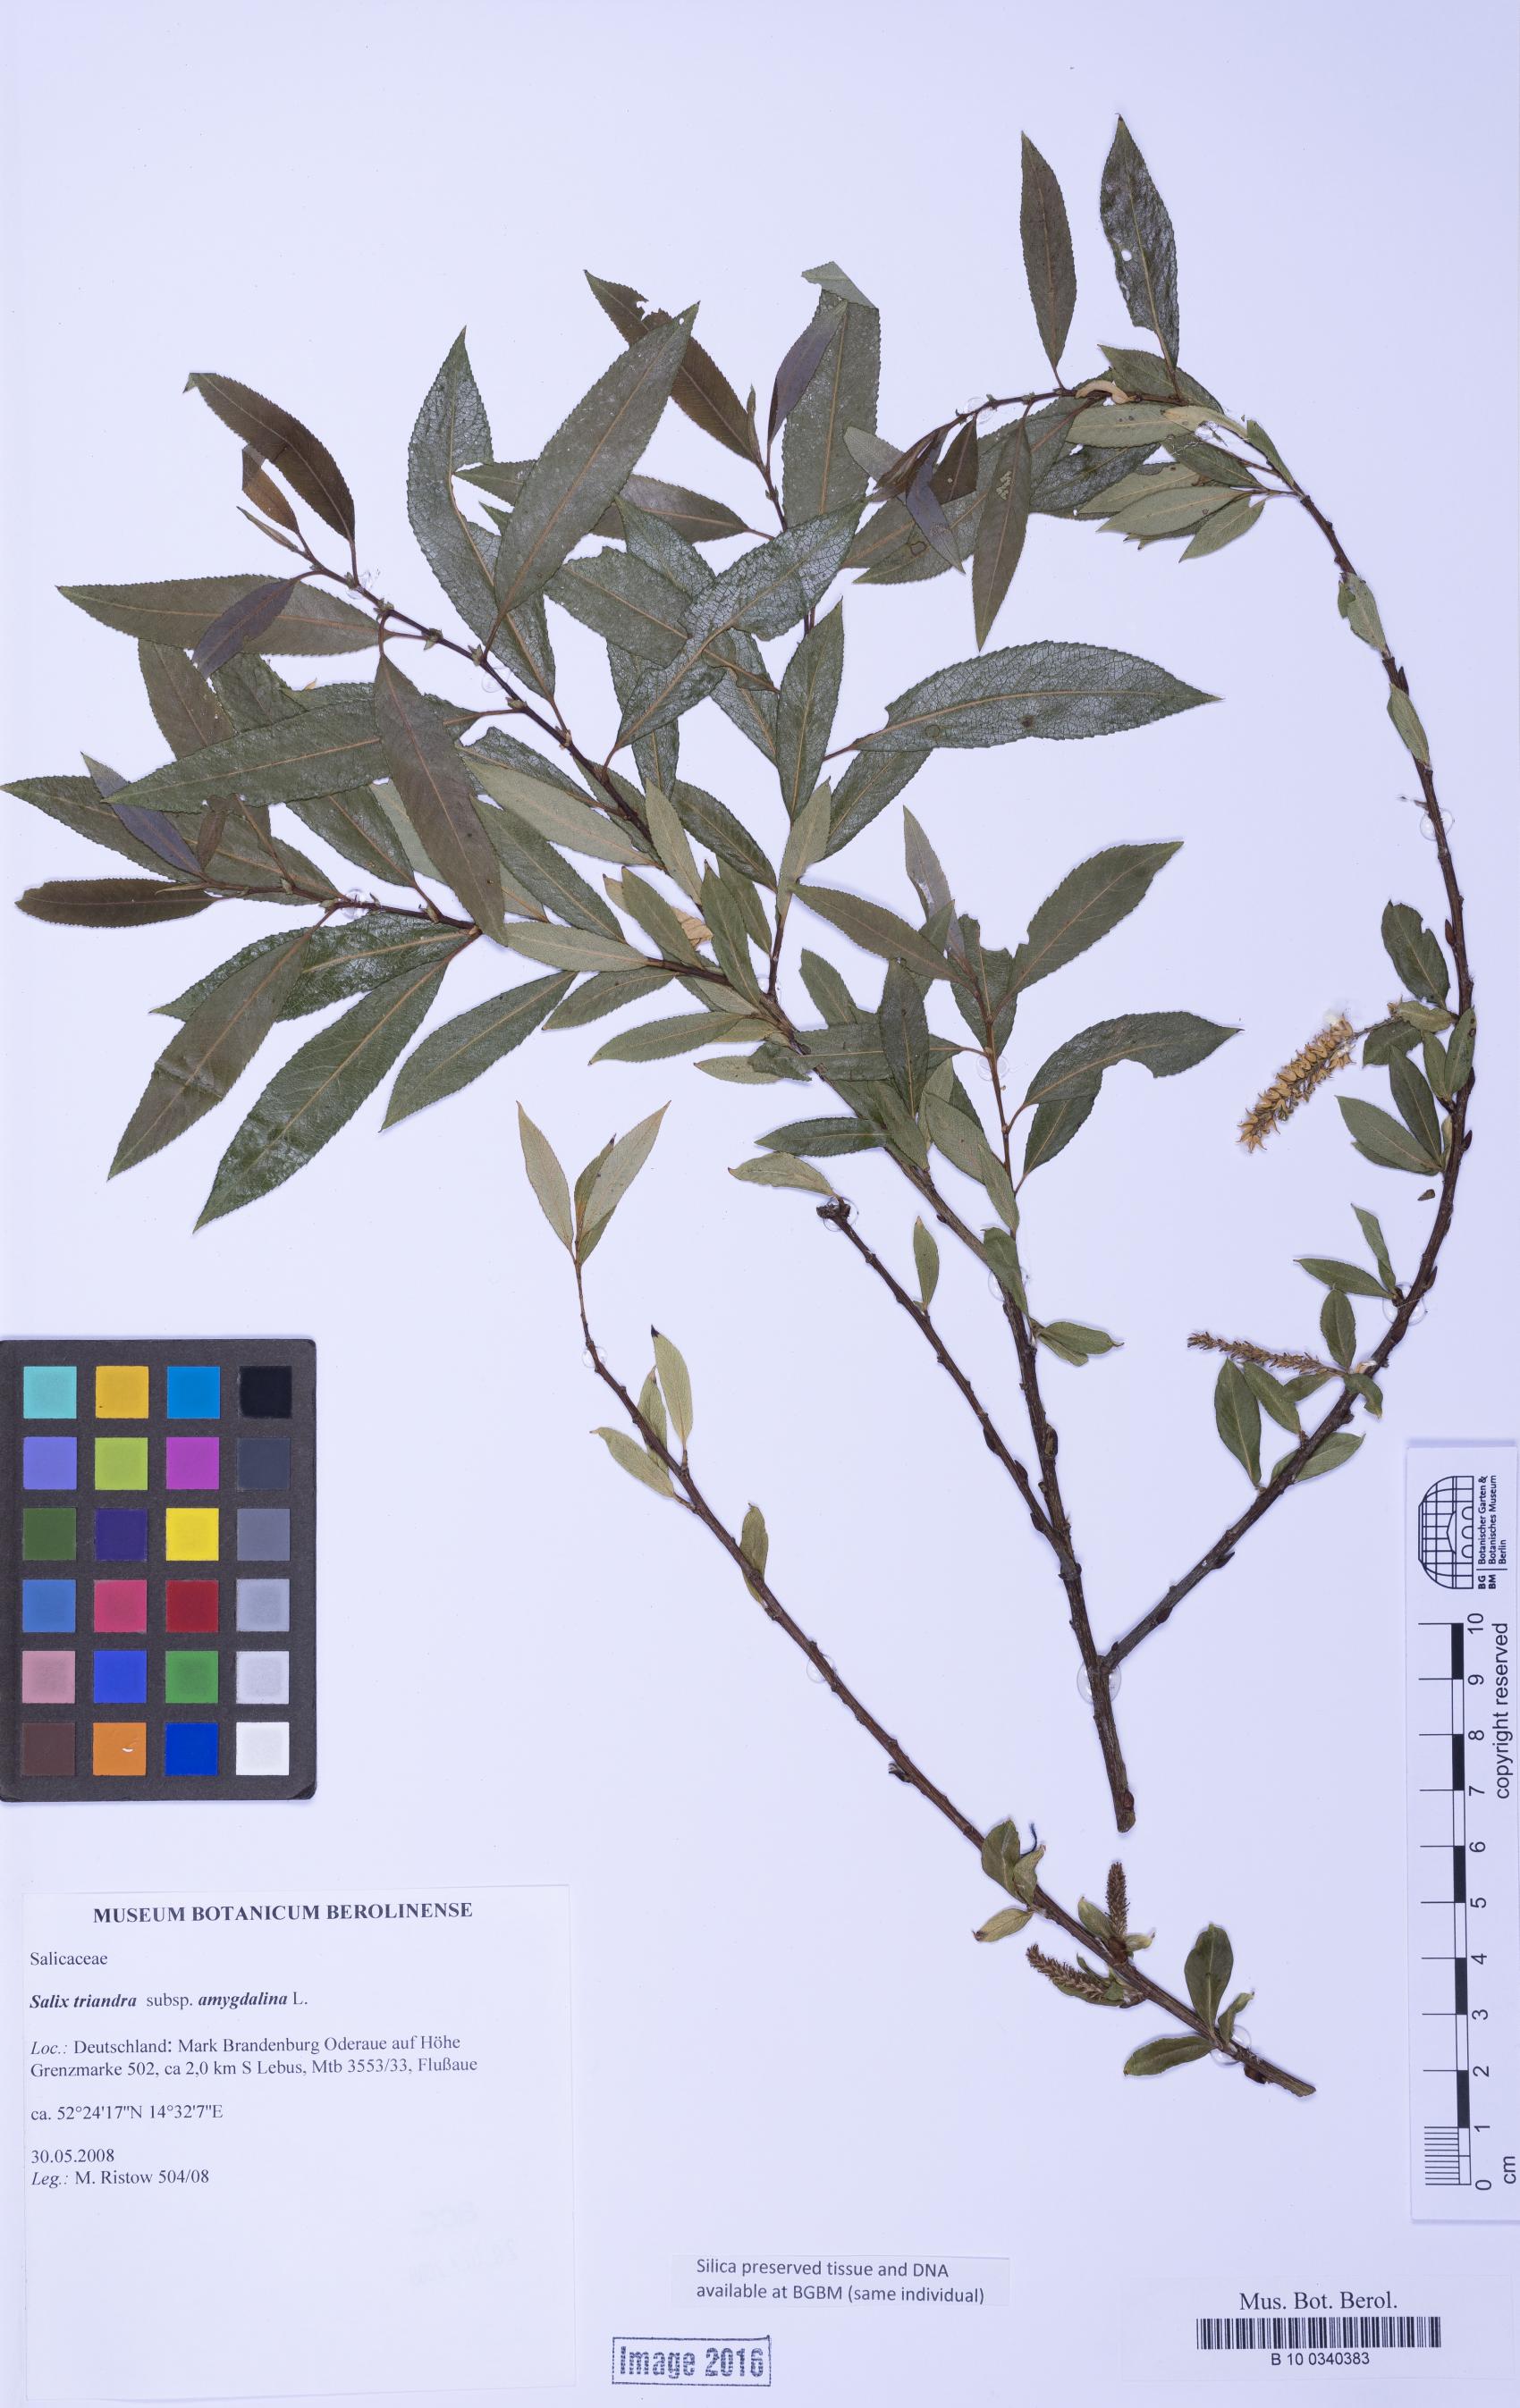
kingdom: Plantae
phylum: Tracheophyta
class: Magnoliopsida
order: Malpighiales
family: Salicaceae
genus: Salix
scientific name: Salix triandra
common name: Almond willow
